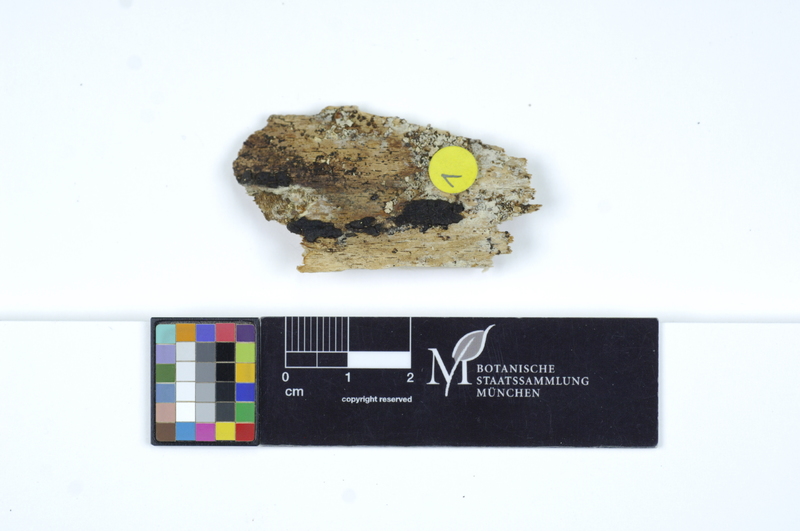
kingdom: Fungi
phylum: Basidiomycota
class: Agaricomycetes
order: Hymenochaetales
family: Schizoporaceae
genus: Xylodon
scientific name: Xylodon flaviporus
